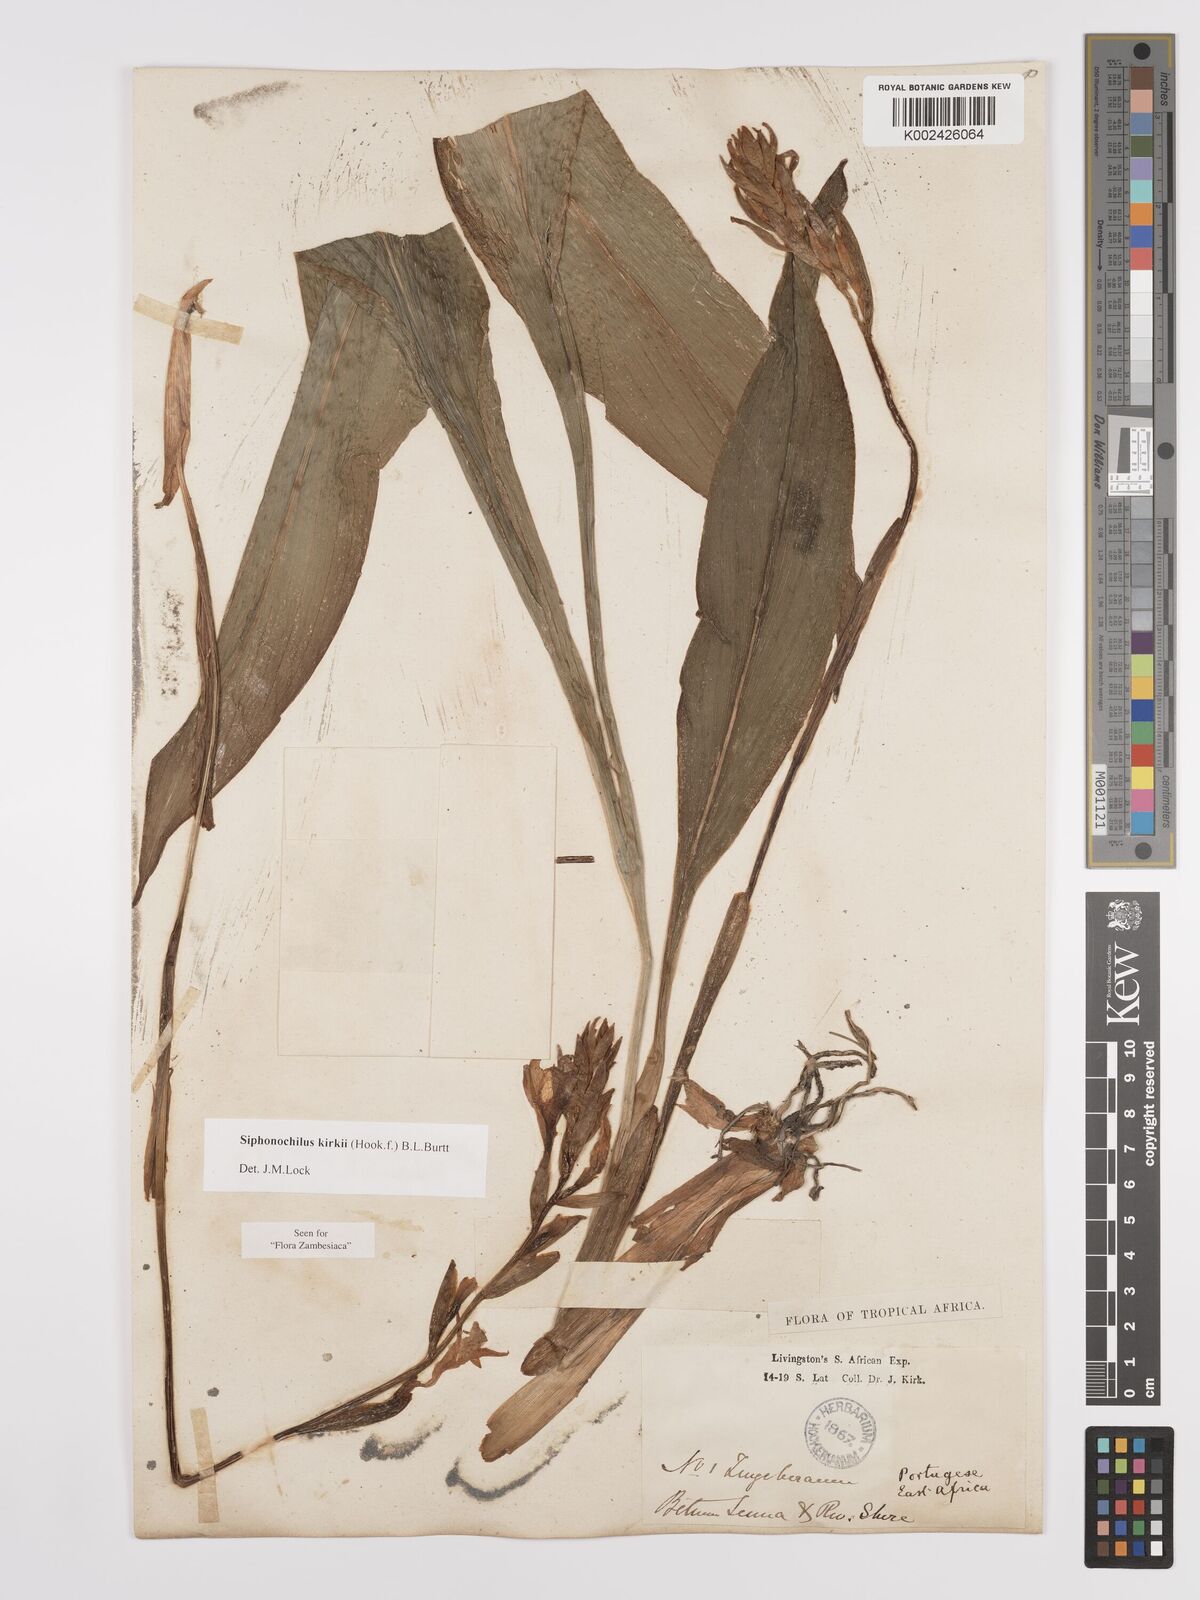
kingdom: Plantae
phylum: Tracheophyta
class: Liliopsida
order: Zingiberales
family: Zingiberaceae
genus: Siphonochilus
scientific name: Siphonochilus kirkii
